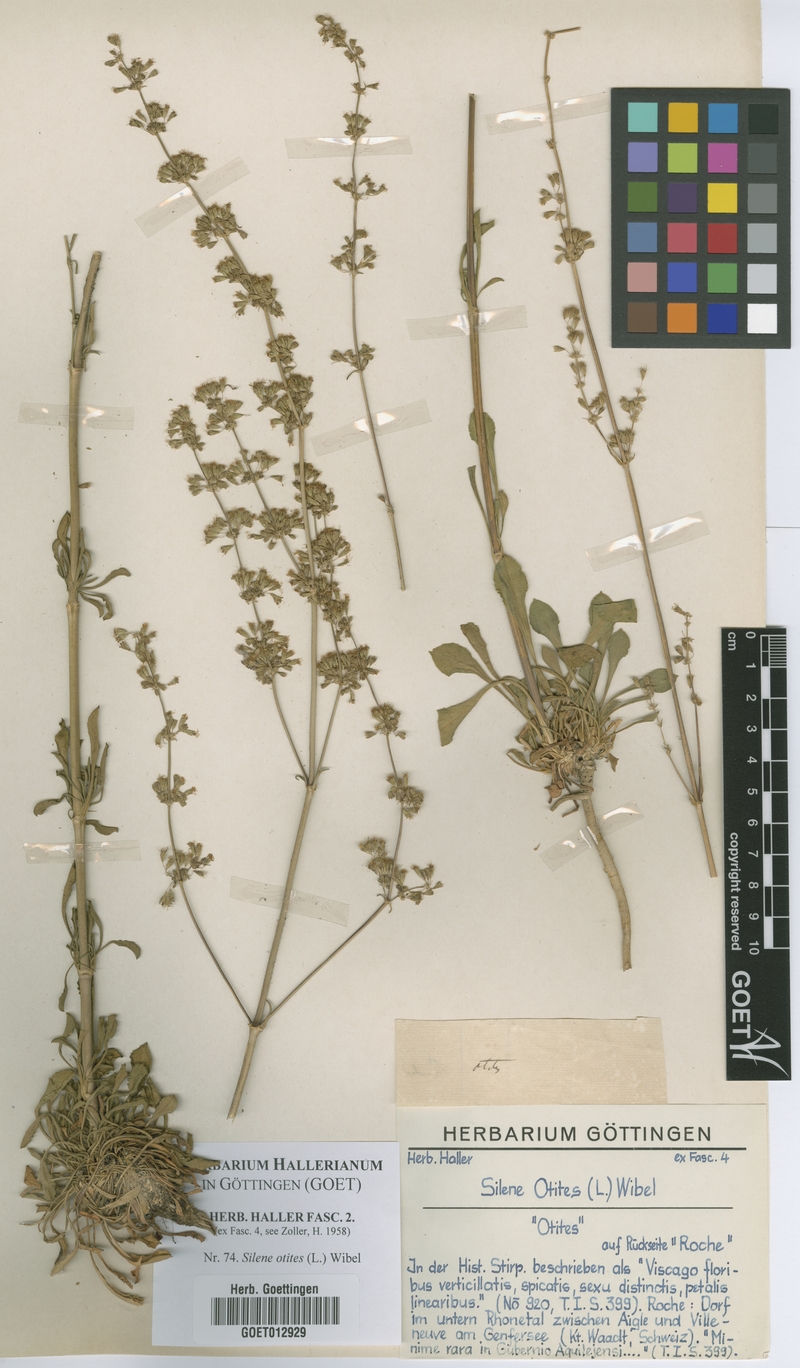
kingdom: Plantae
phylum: Tracheophyta
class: Magnoliopsida
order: Caryophyllales
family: Caryophyllaceae
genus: Silene
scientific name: Silene otites
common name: Spanish catchfly
